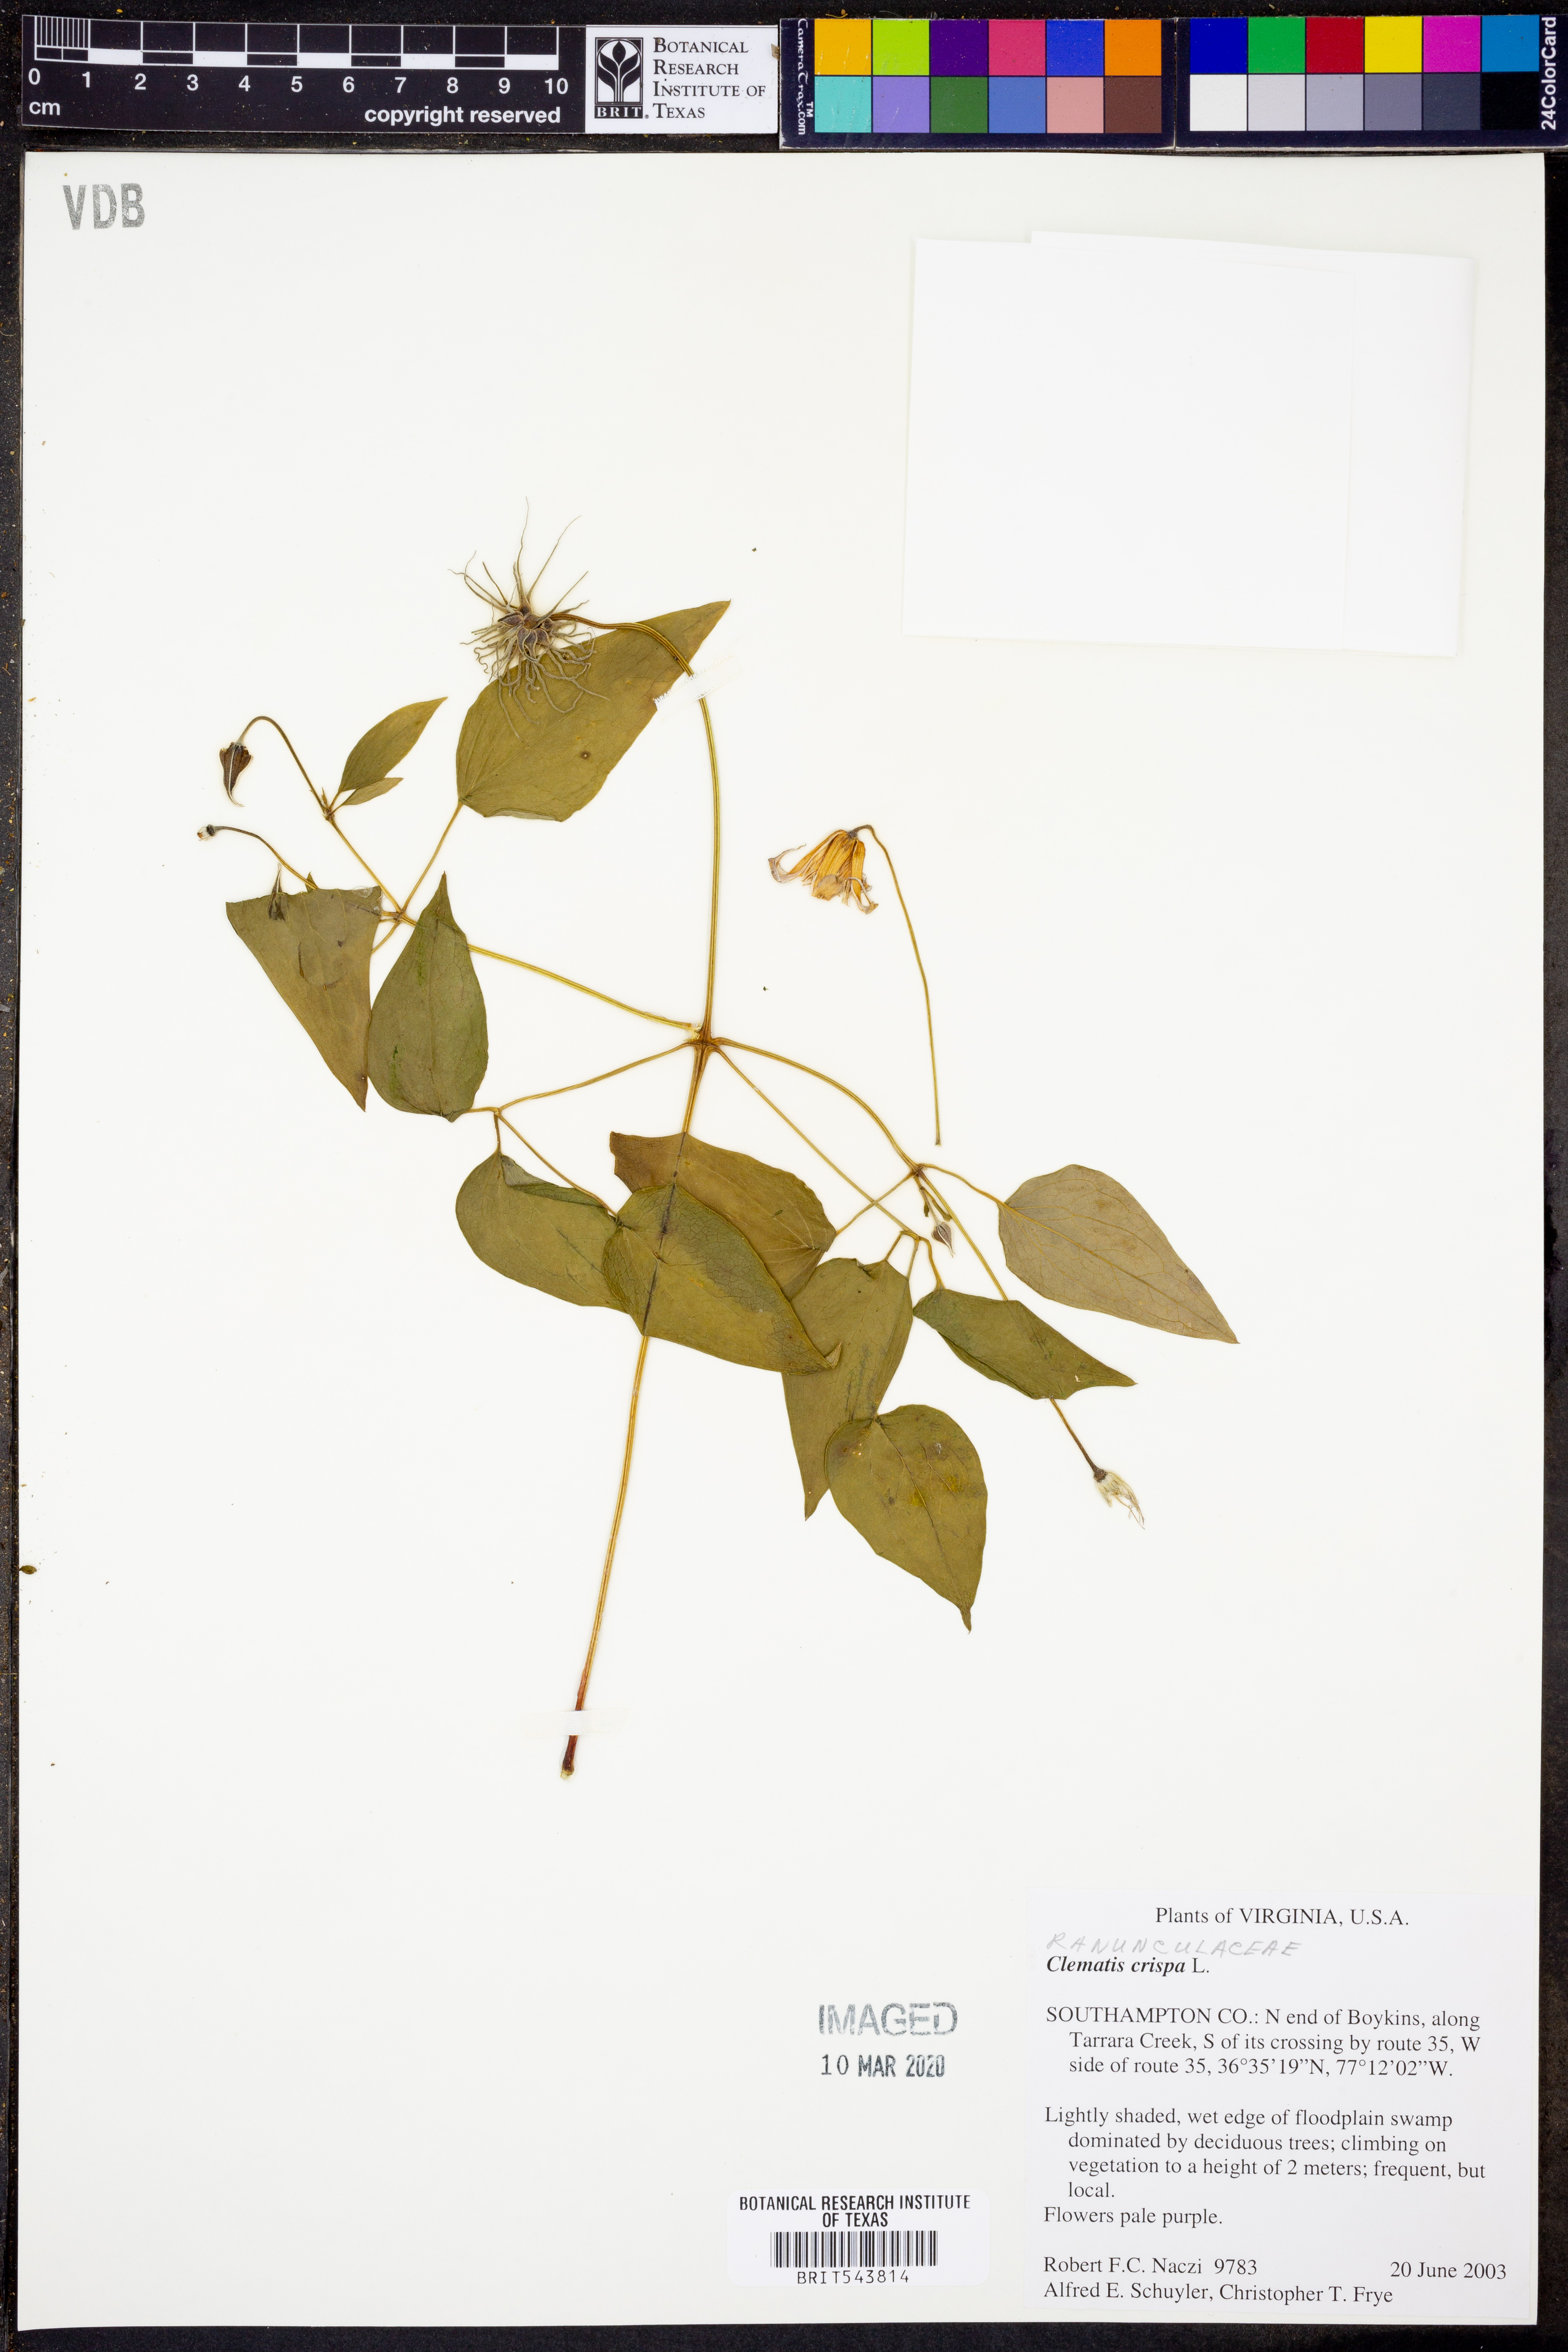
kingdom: Plantae
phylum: Tracheophyta
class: Magnoliopsida
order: Ranunculales
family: Ranunculaceae
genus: Clematis
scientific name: Clematis crispa
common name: Curly clematis
